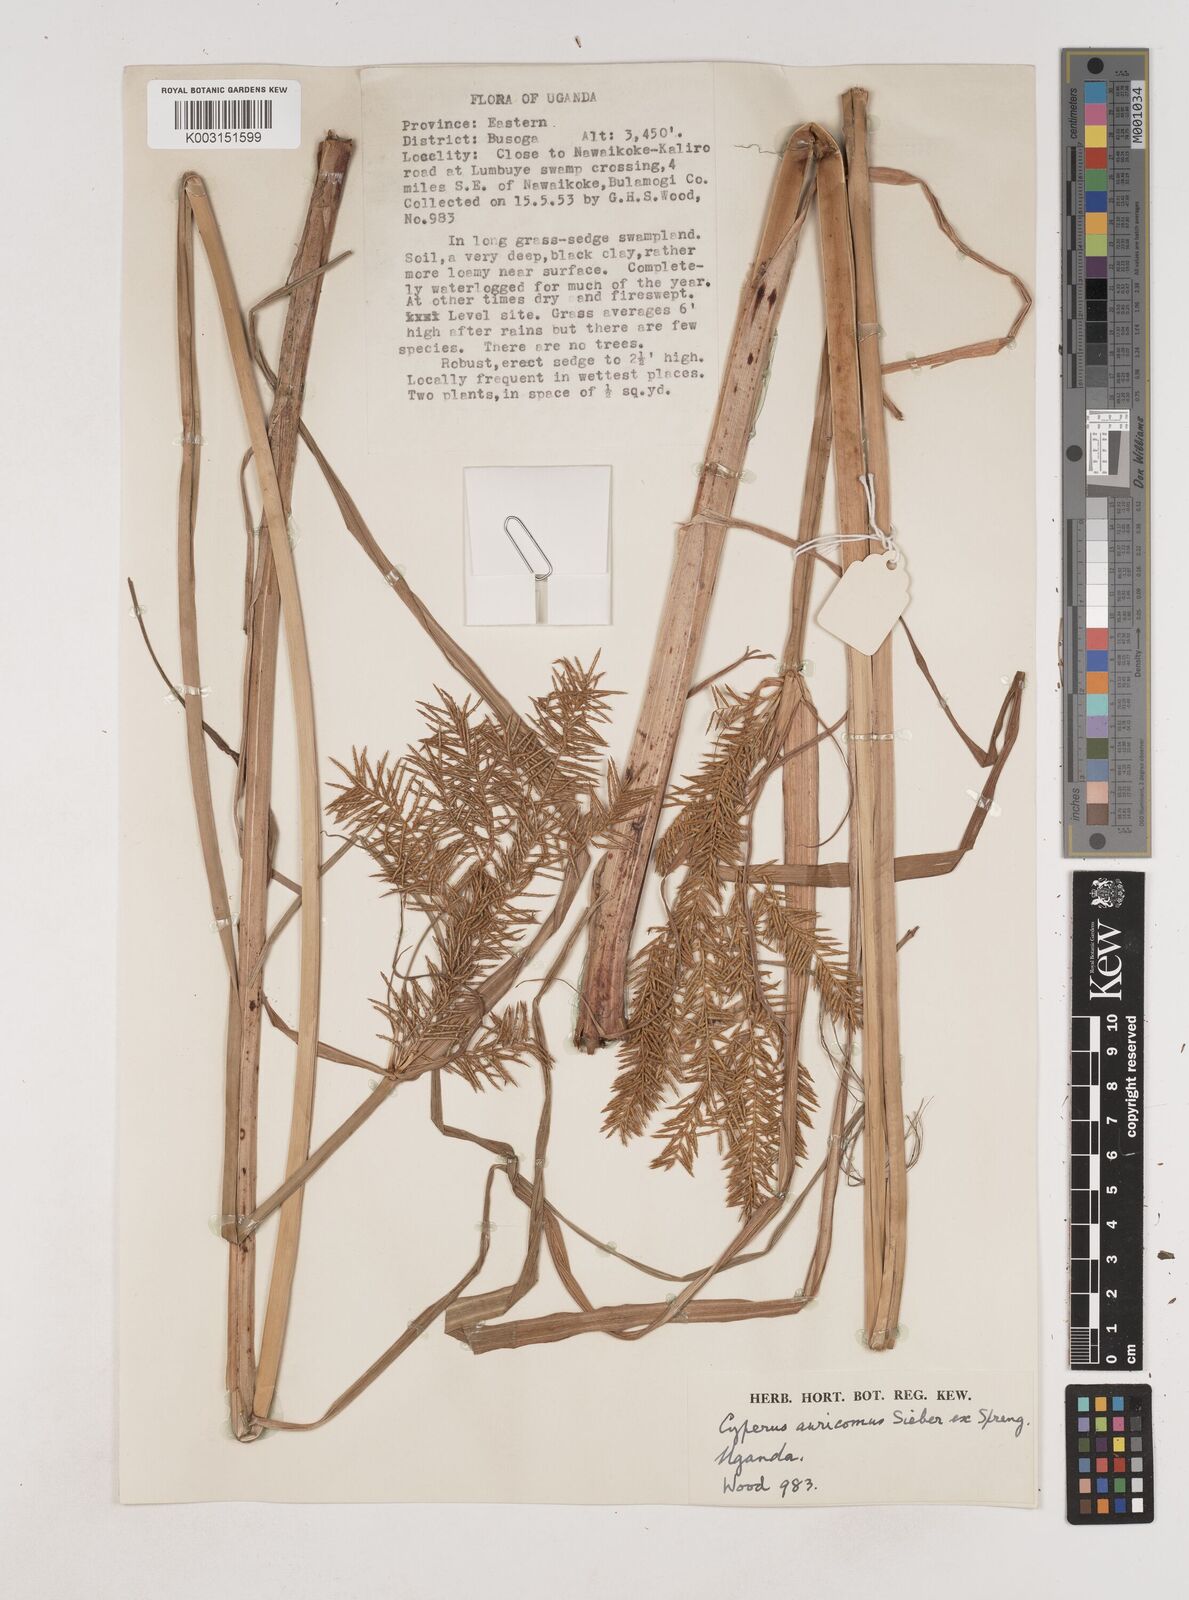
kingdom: Plantae
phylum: Tracheophyta
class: Liliopsida
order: Poales
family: Cyperaceae
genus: Cyperus
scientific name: Cyperus digitatus
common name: Finger flatsedge
